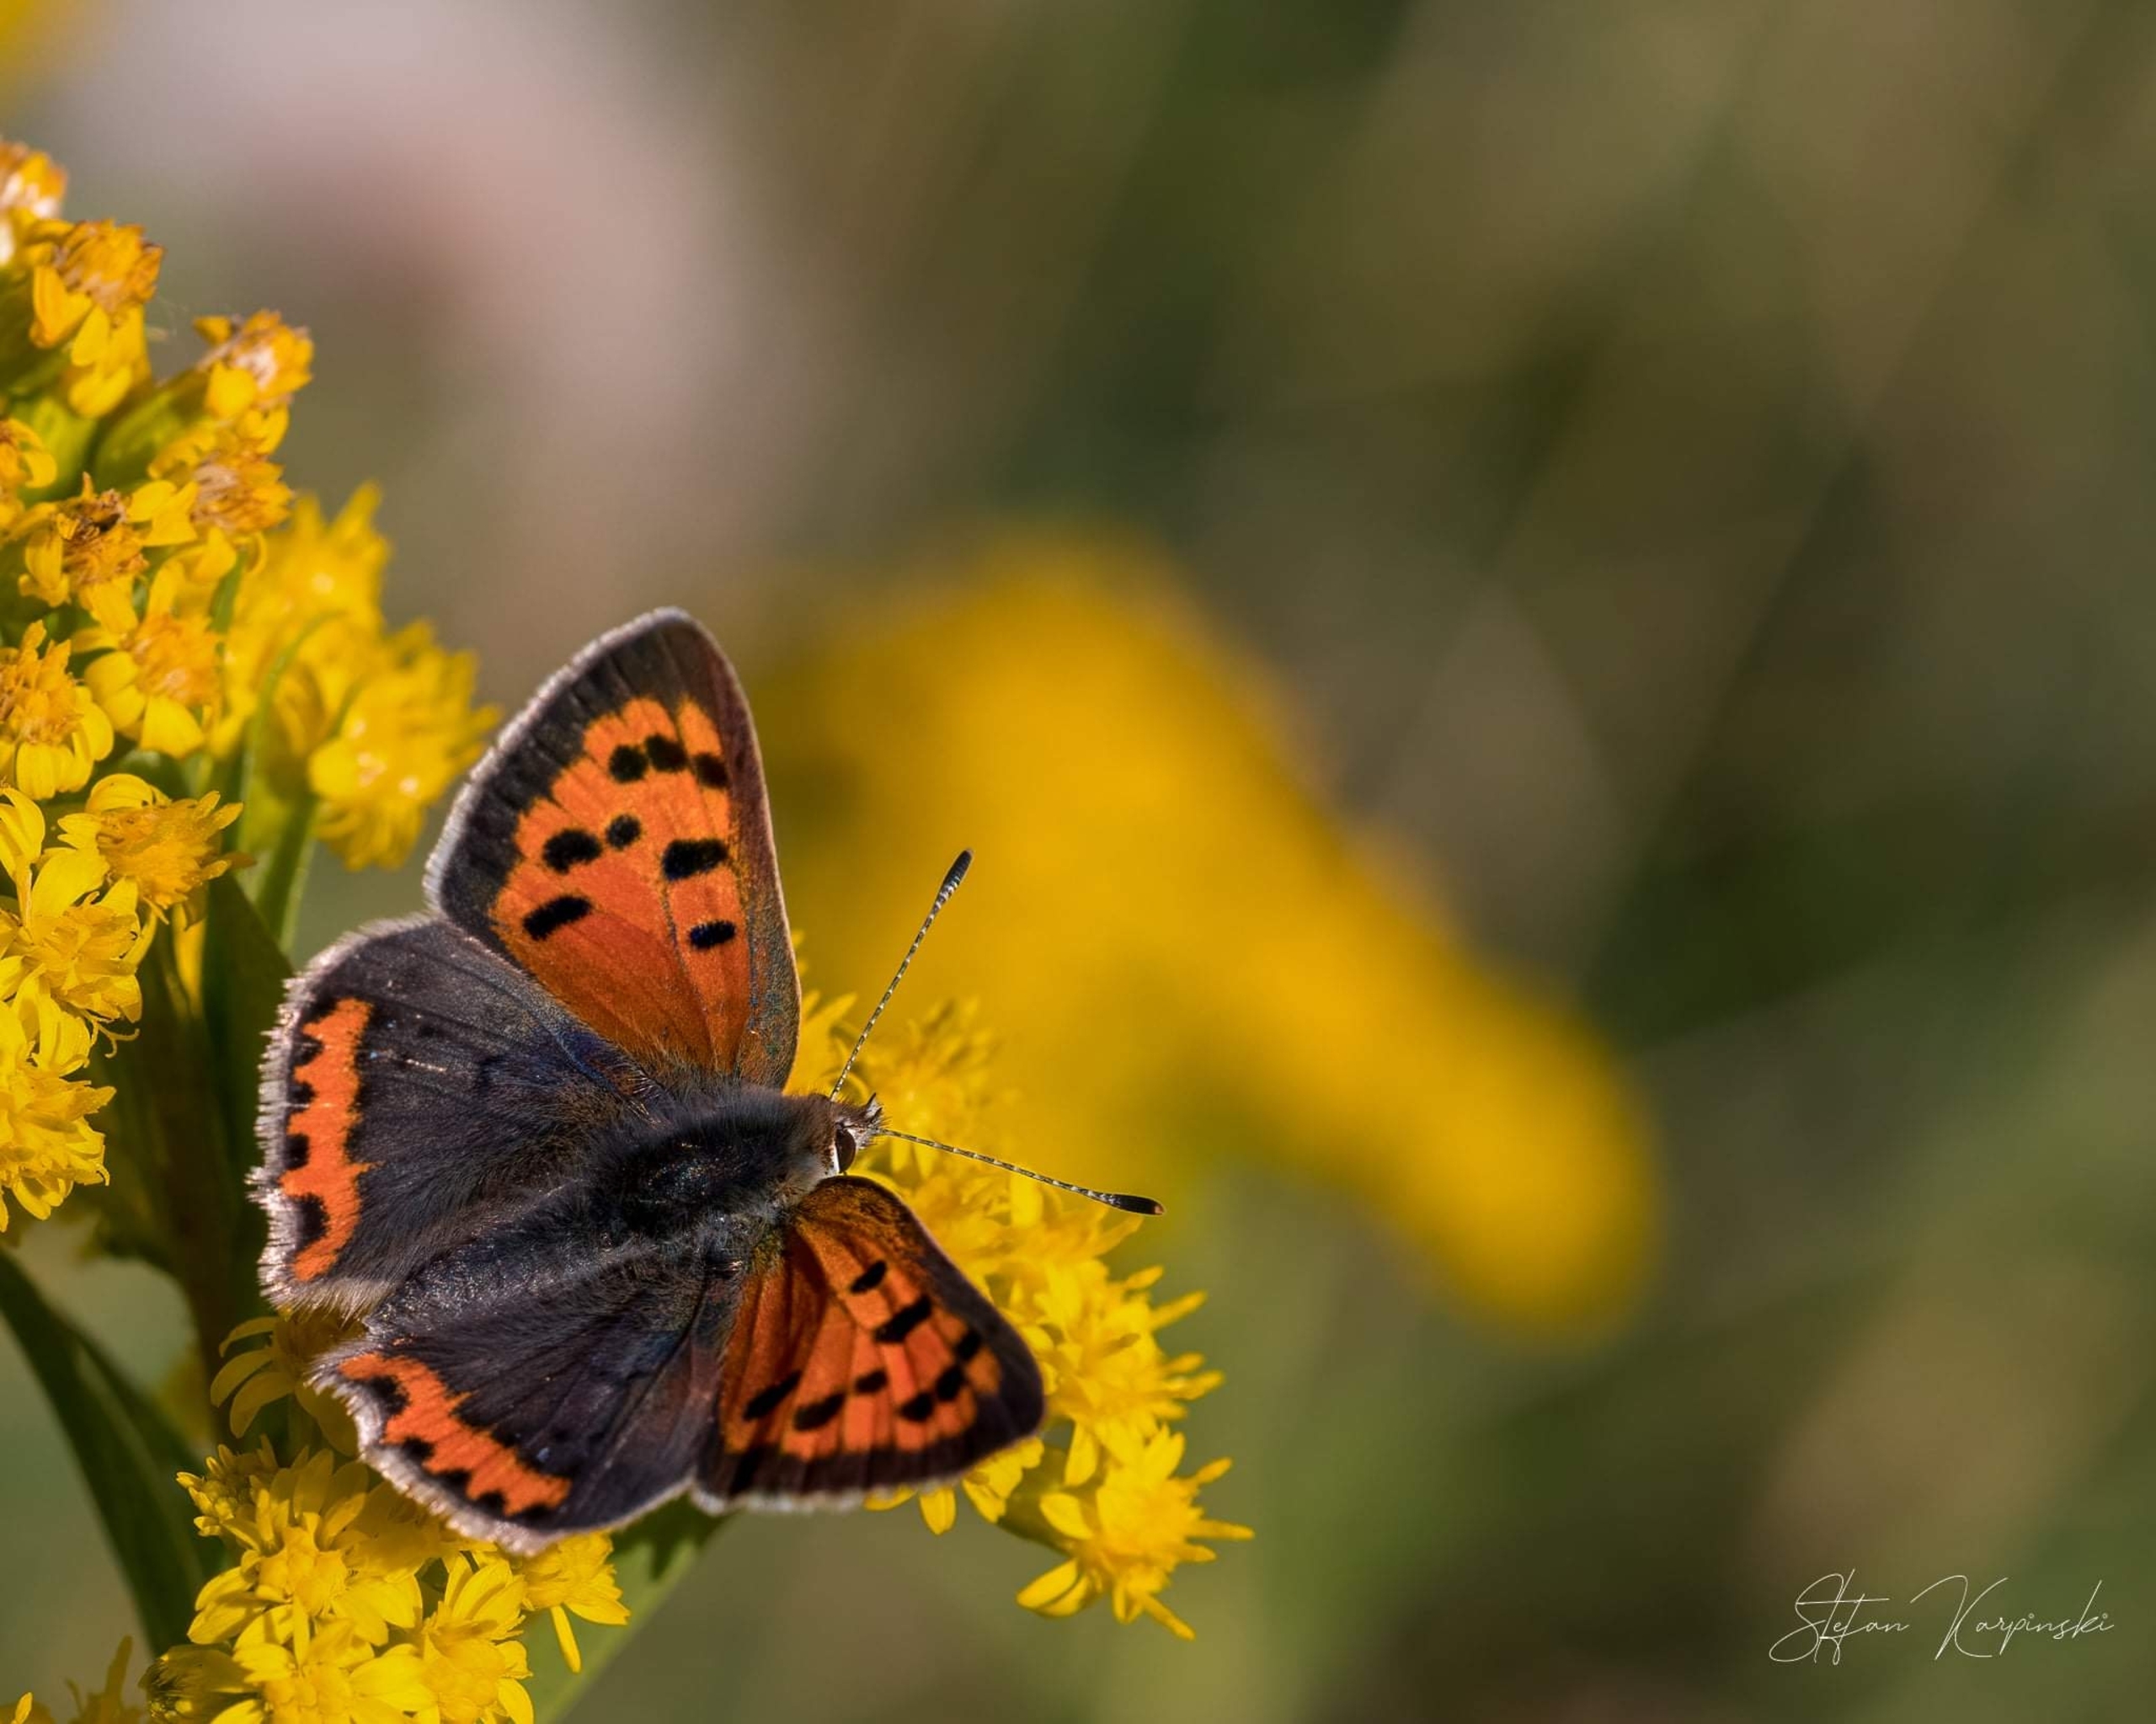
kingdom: Animalia
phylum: Arthropoda
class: Insecta
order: Lepidoptera
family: Lycaenidae
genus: Lycaena
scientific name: Lycaena phlaeas
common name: Lille ildfugl
